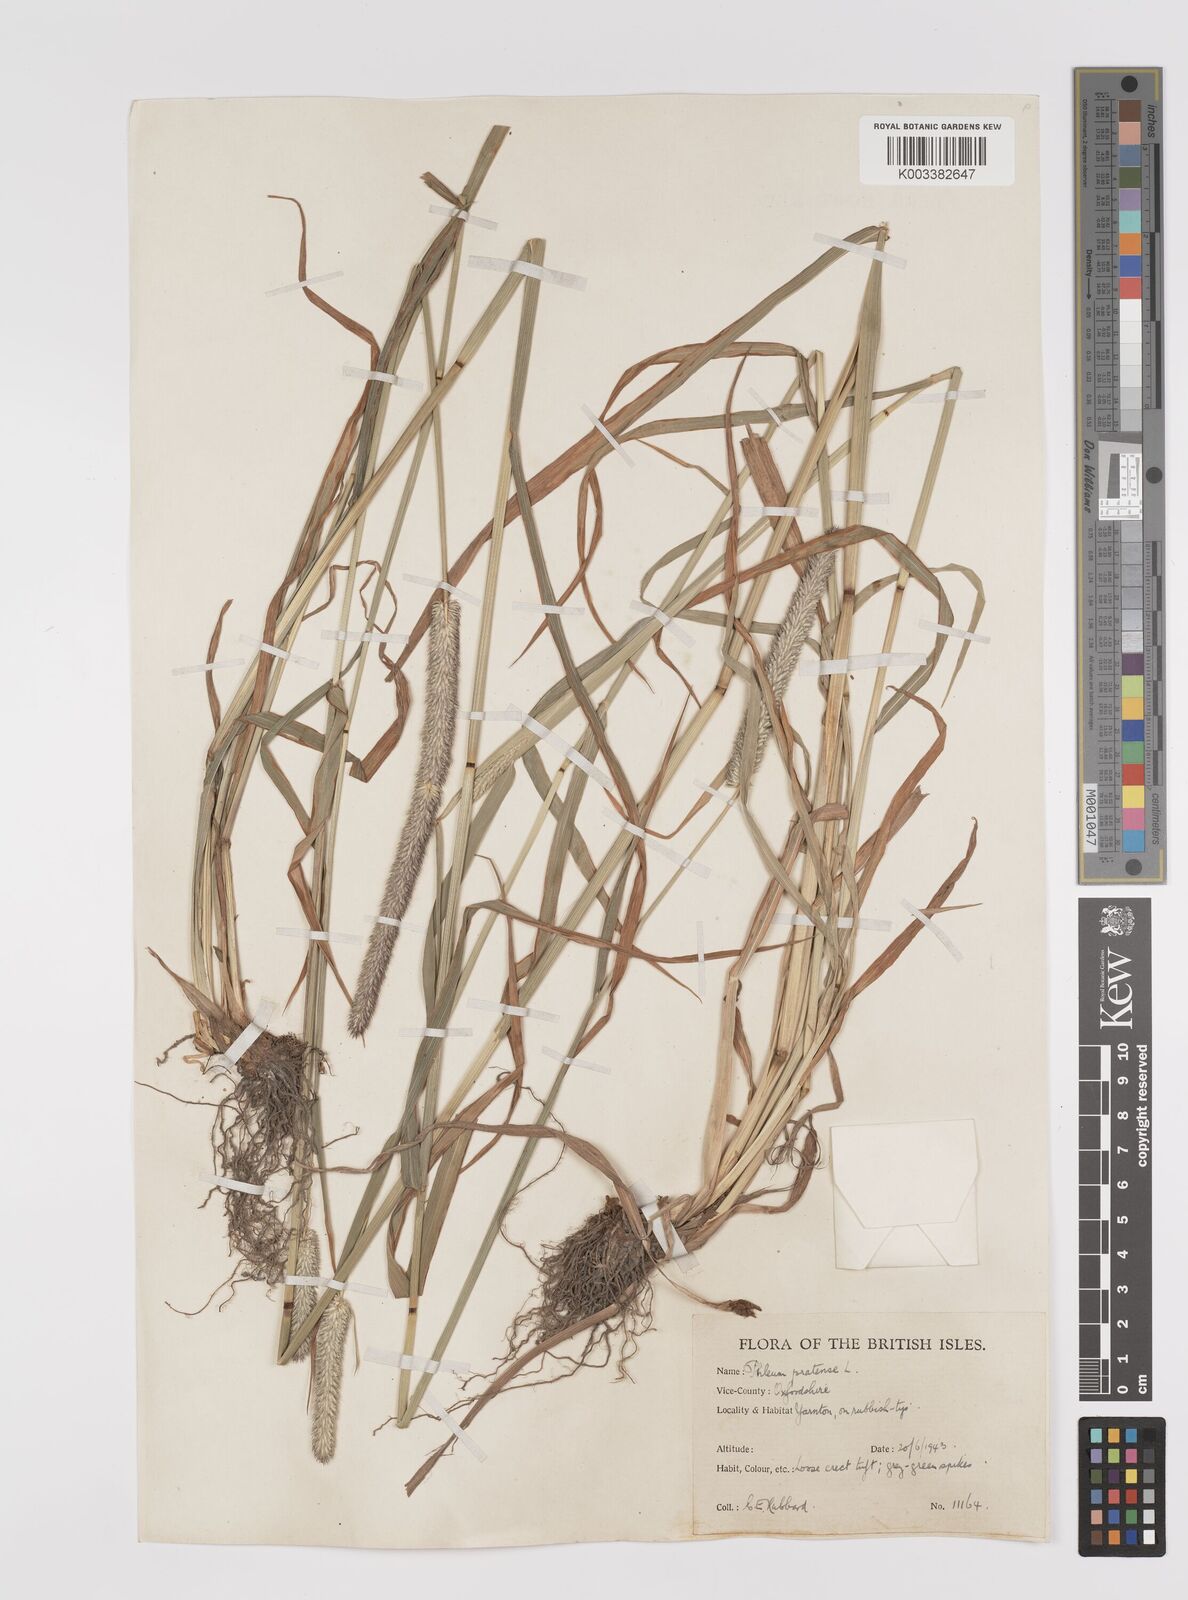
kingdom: Plantae
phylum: Tracheophyta
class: Liliopsida
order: Poales
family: Poaceae
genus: Phleum
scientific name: Phleum pratense
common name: Timothy grass
